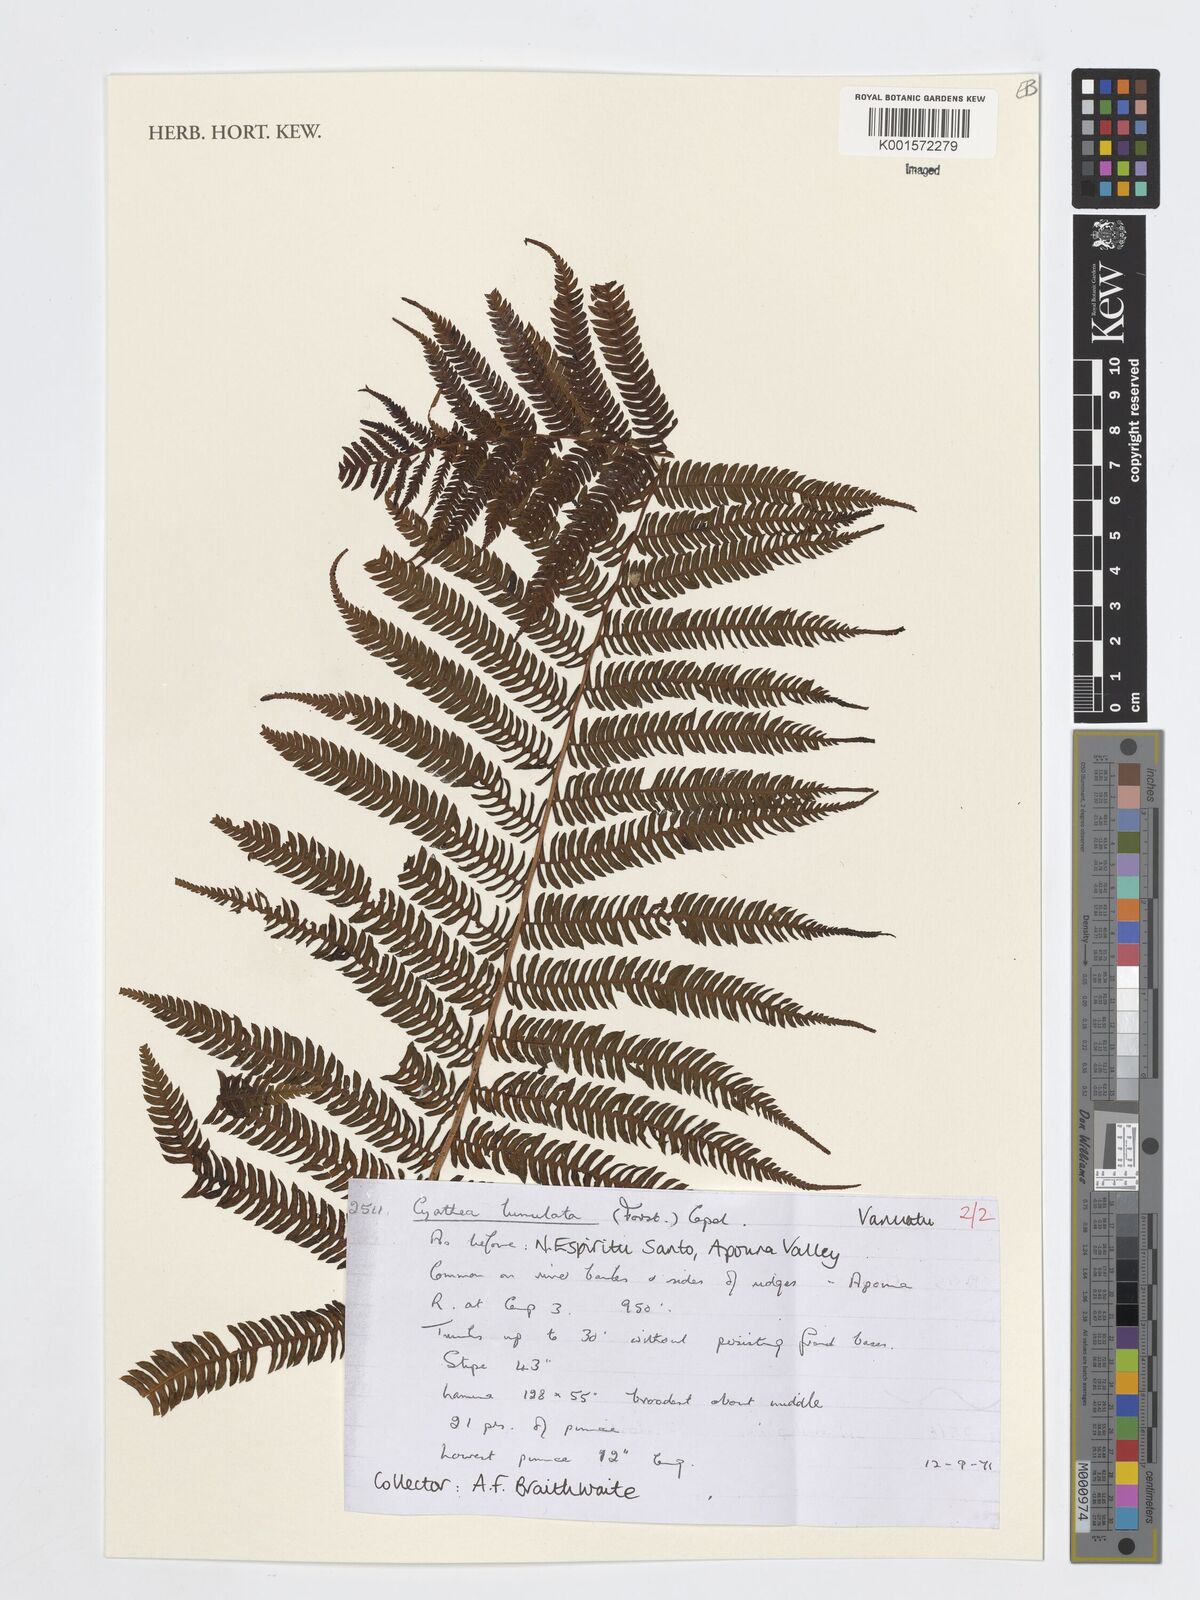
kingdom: Plantae
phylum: Tracheophyta
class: Polypodiopsida
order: Cyatheales
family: Cyatheaceae
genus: Sphaeropteris
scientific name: Sphaeropteris lunulata
